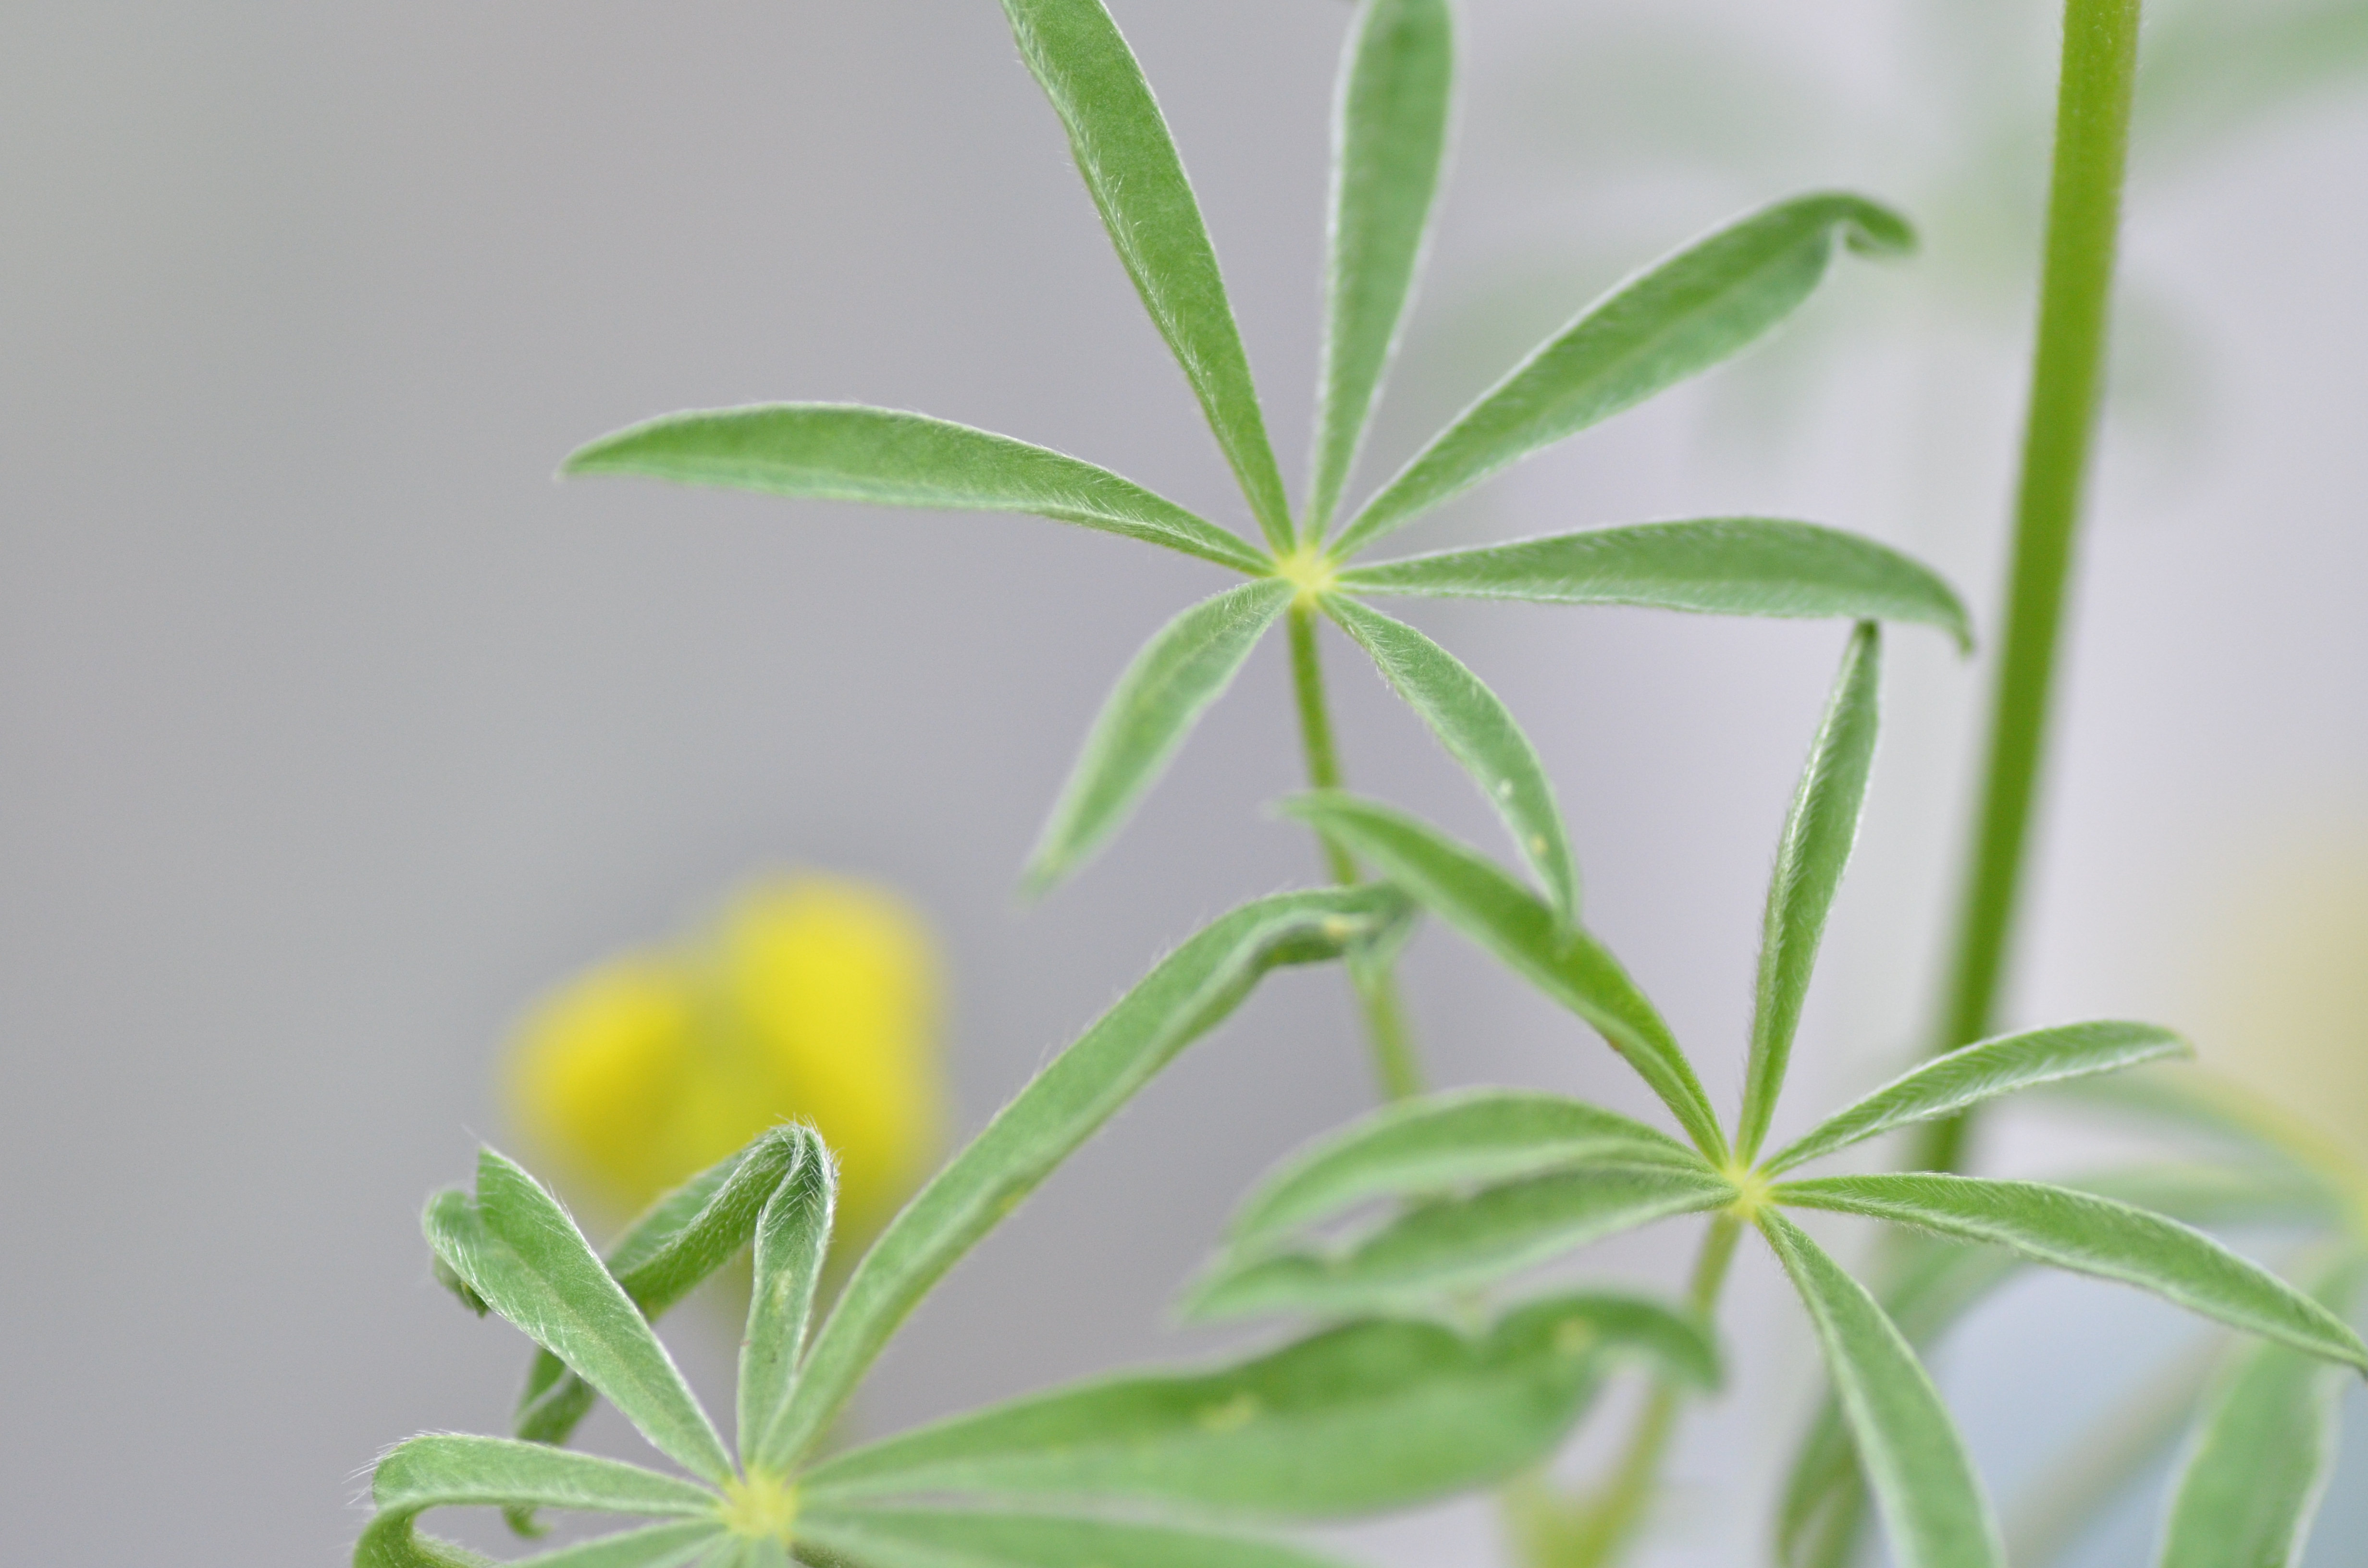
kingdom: Plantae
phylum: Tracheophyta
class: Magnoliopsida
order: Fabales
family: Fabaceae
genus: Lupinus
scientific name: Lupinus luteus
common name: European yellow lupine
